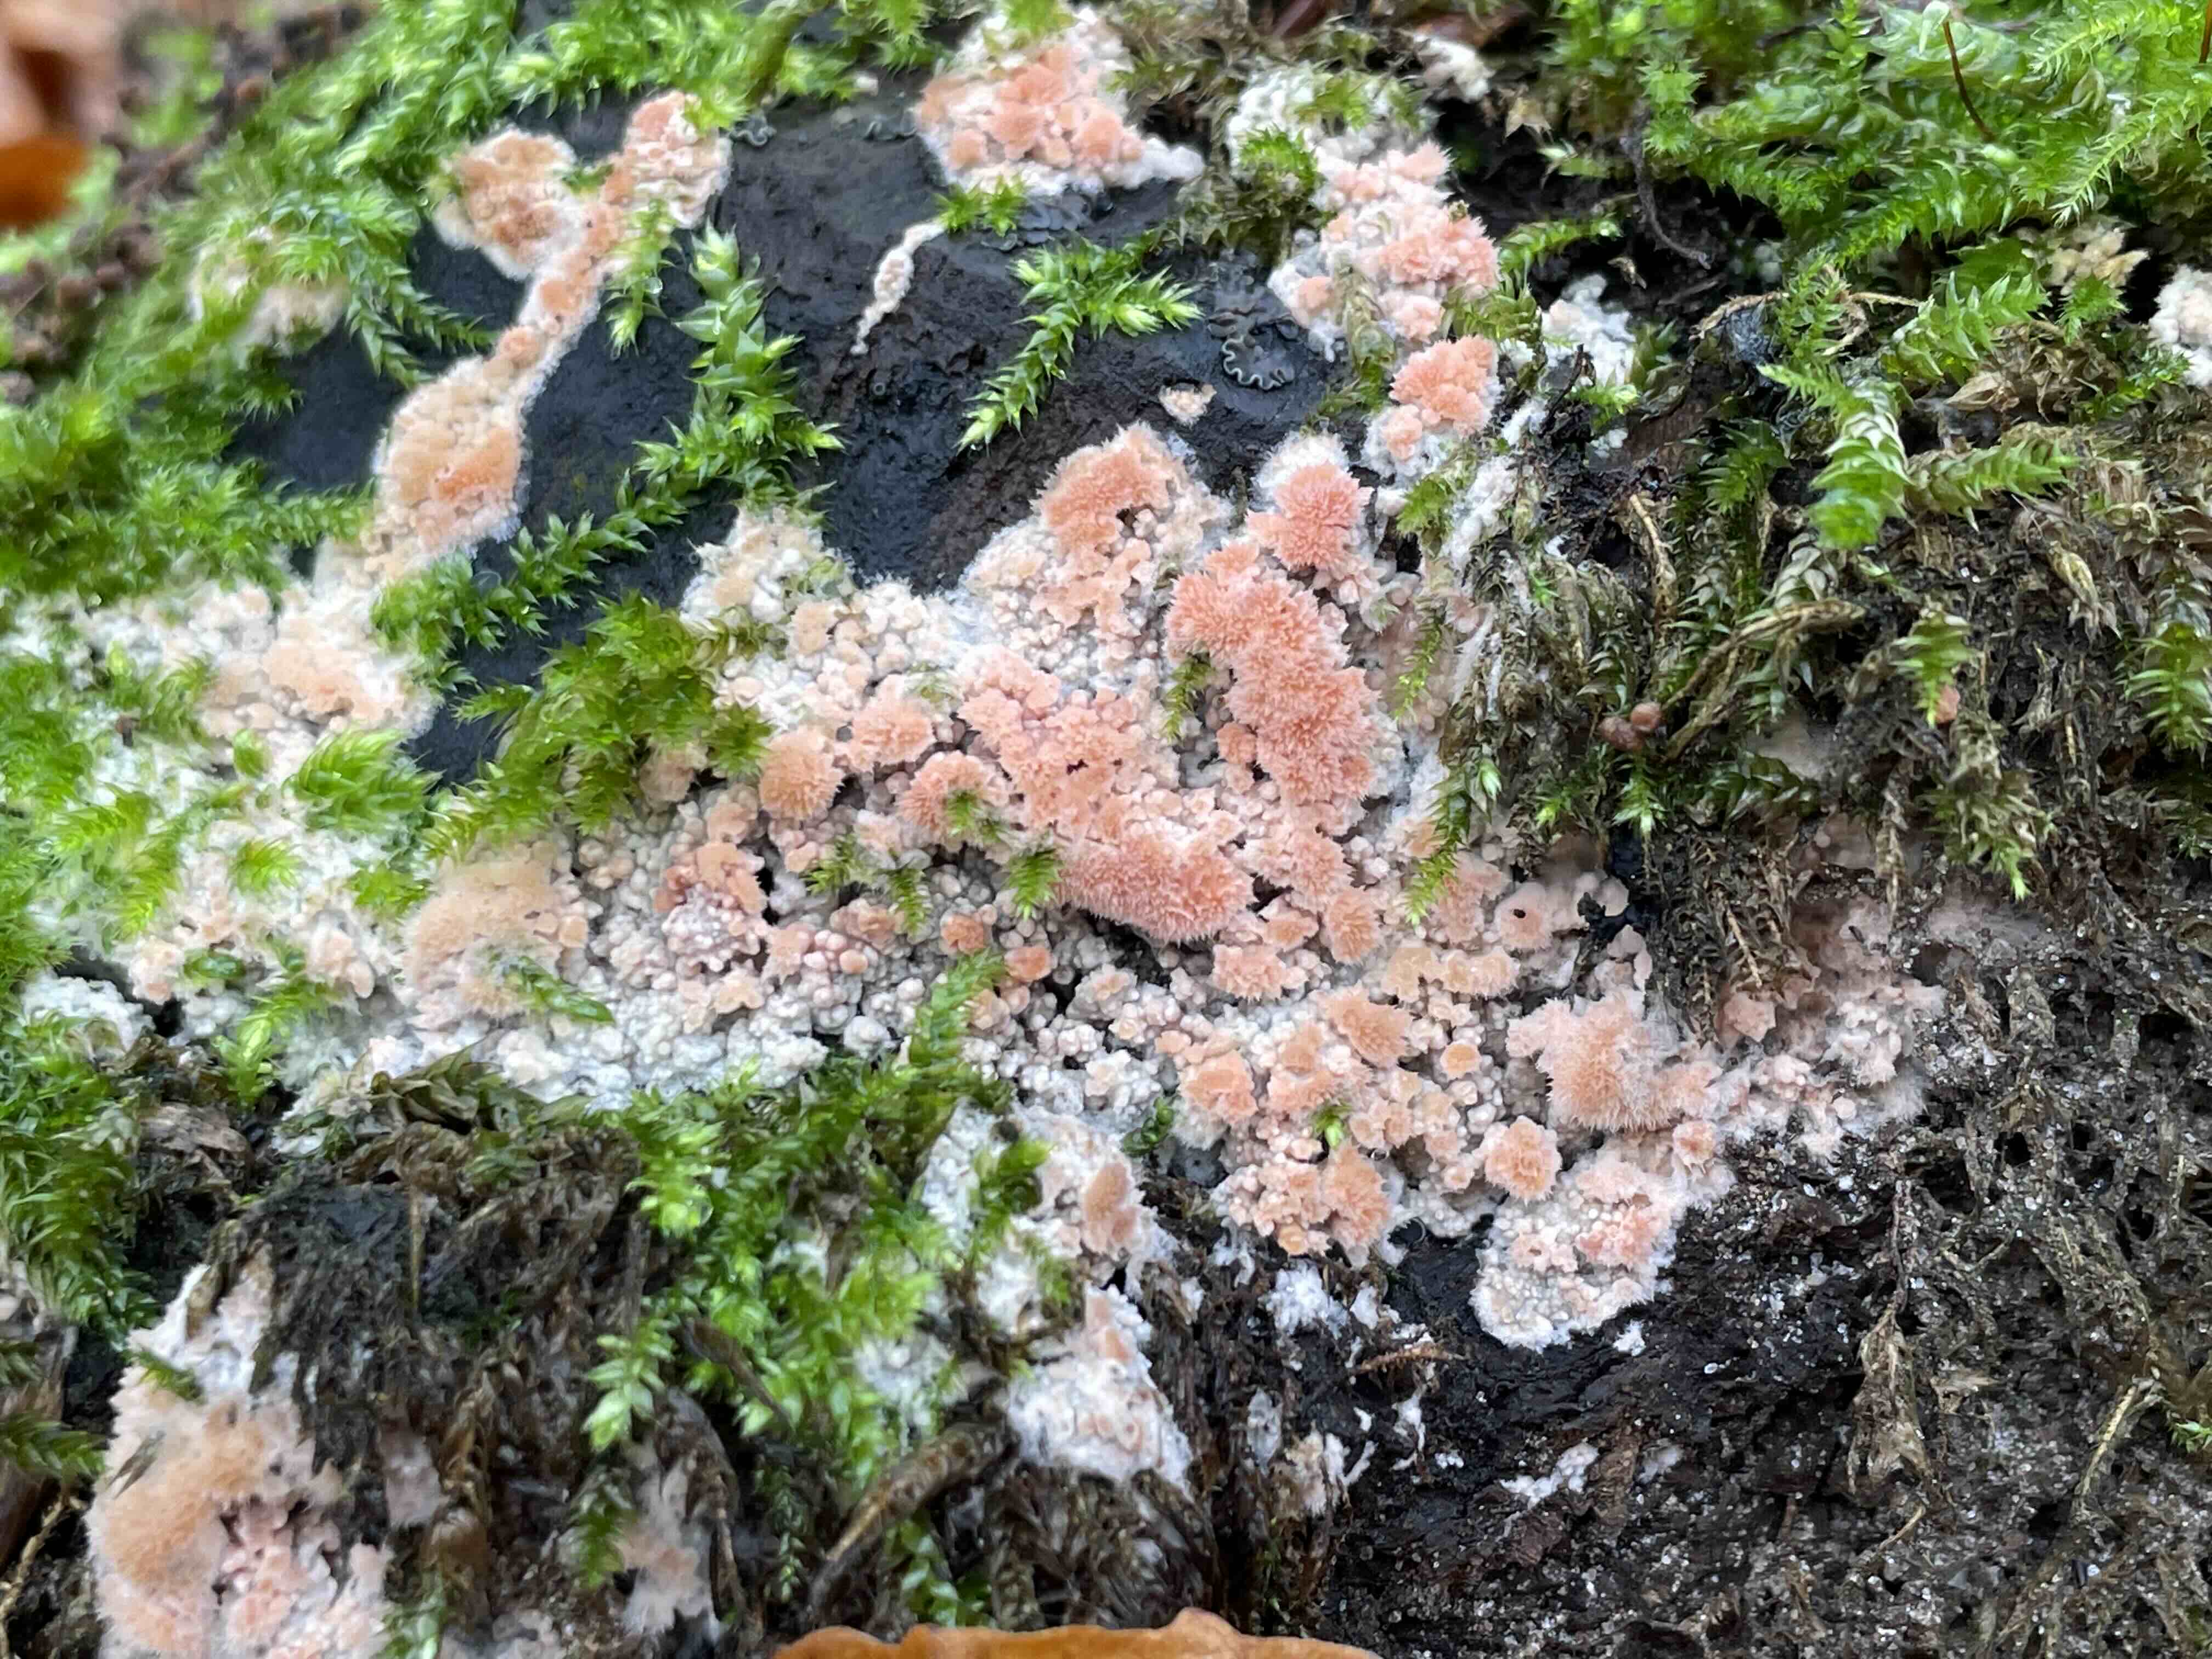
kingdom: Fungi
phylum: Basidiomycota
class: Agaricomycetes
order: Corticiales
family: Corticiaceae
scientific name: Corticiaceae
